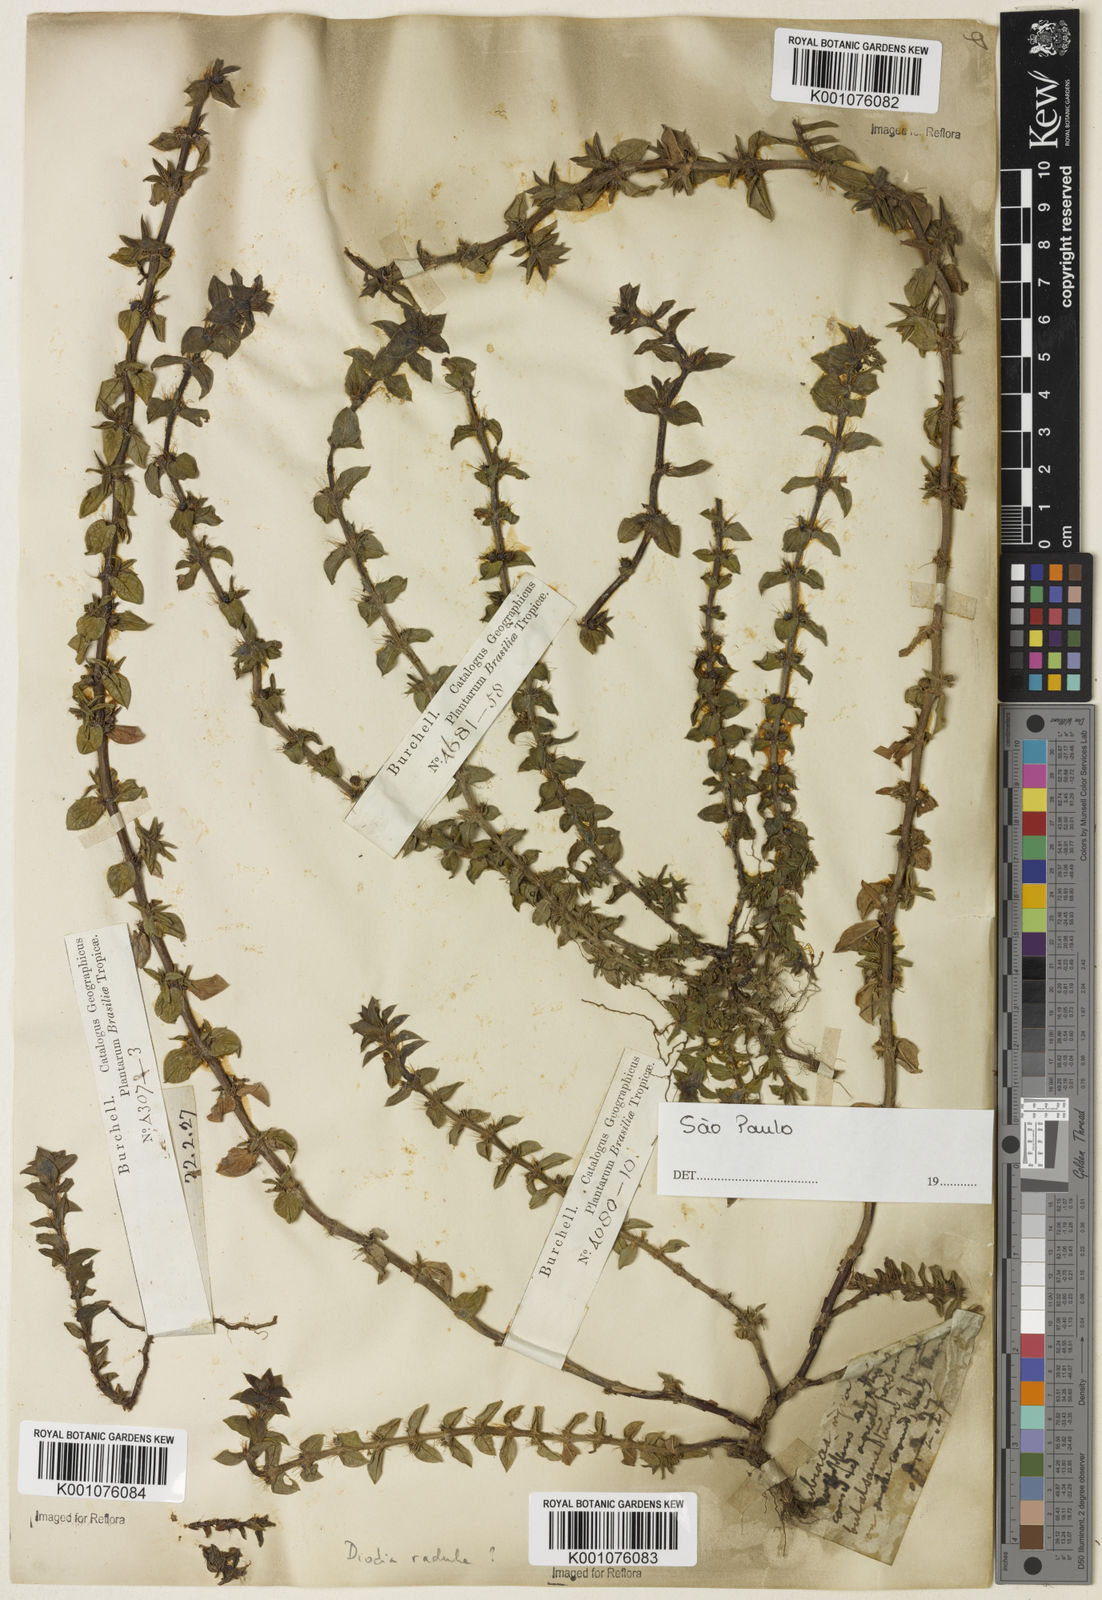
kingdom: Plantae
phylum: Tracheophyta
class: Magnoliopsida
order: Gentianales
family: Rubiaceae
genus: Hexasepalum
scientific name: Hexasepalum radulum
